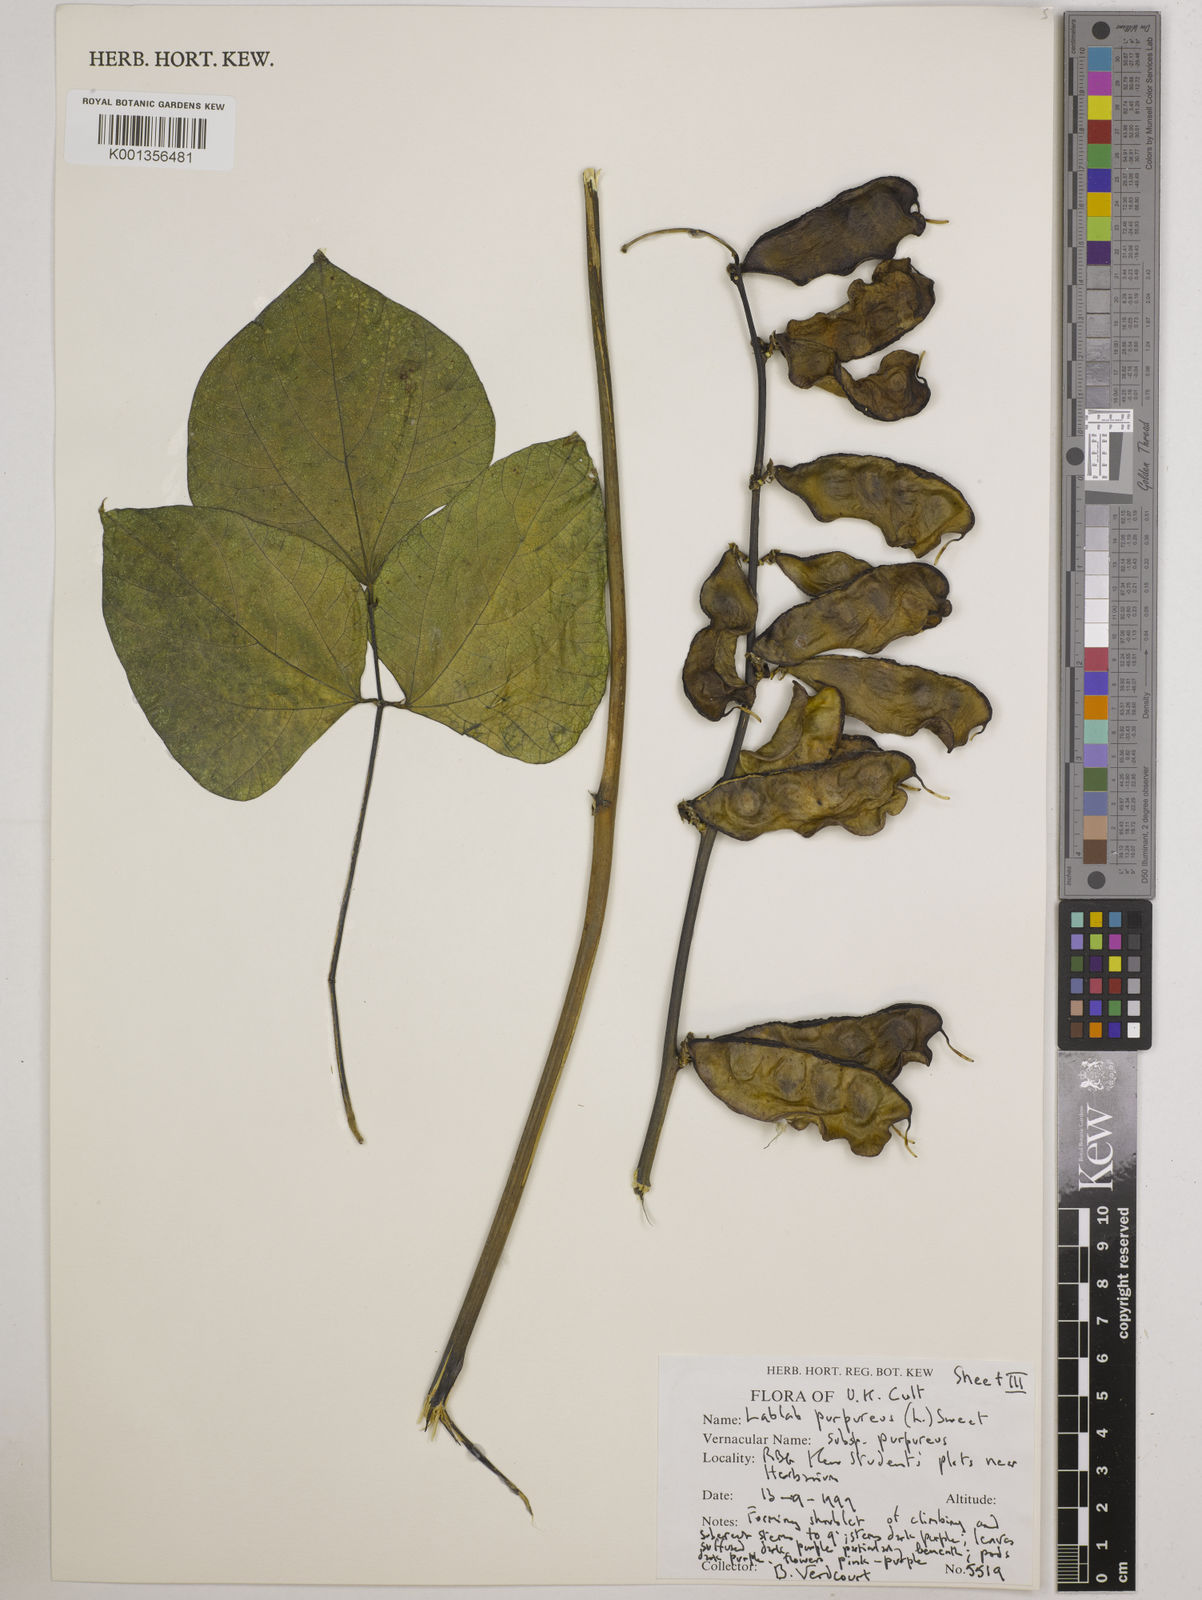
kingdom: Plantae
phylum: Tracheophyta
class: Magnoliopsida
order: Fabales
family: Fabaceae
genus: Lablab
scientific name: Lablab purpureus
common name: Lablab-bean
